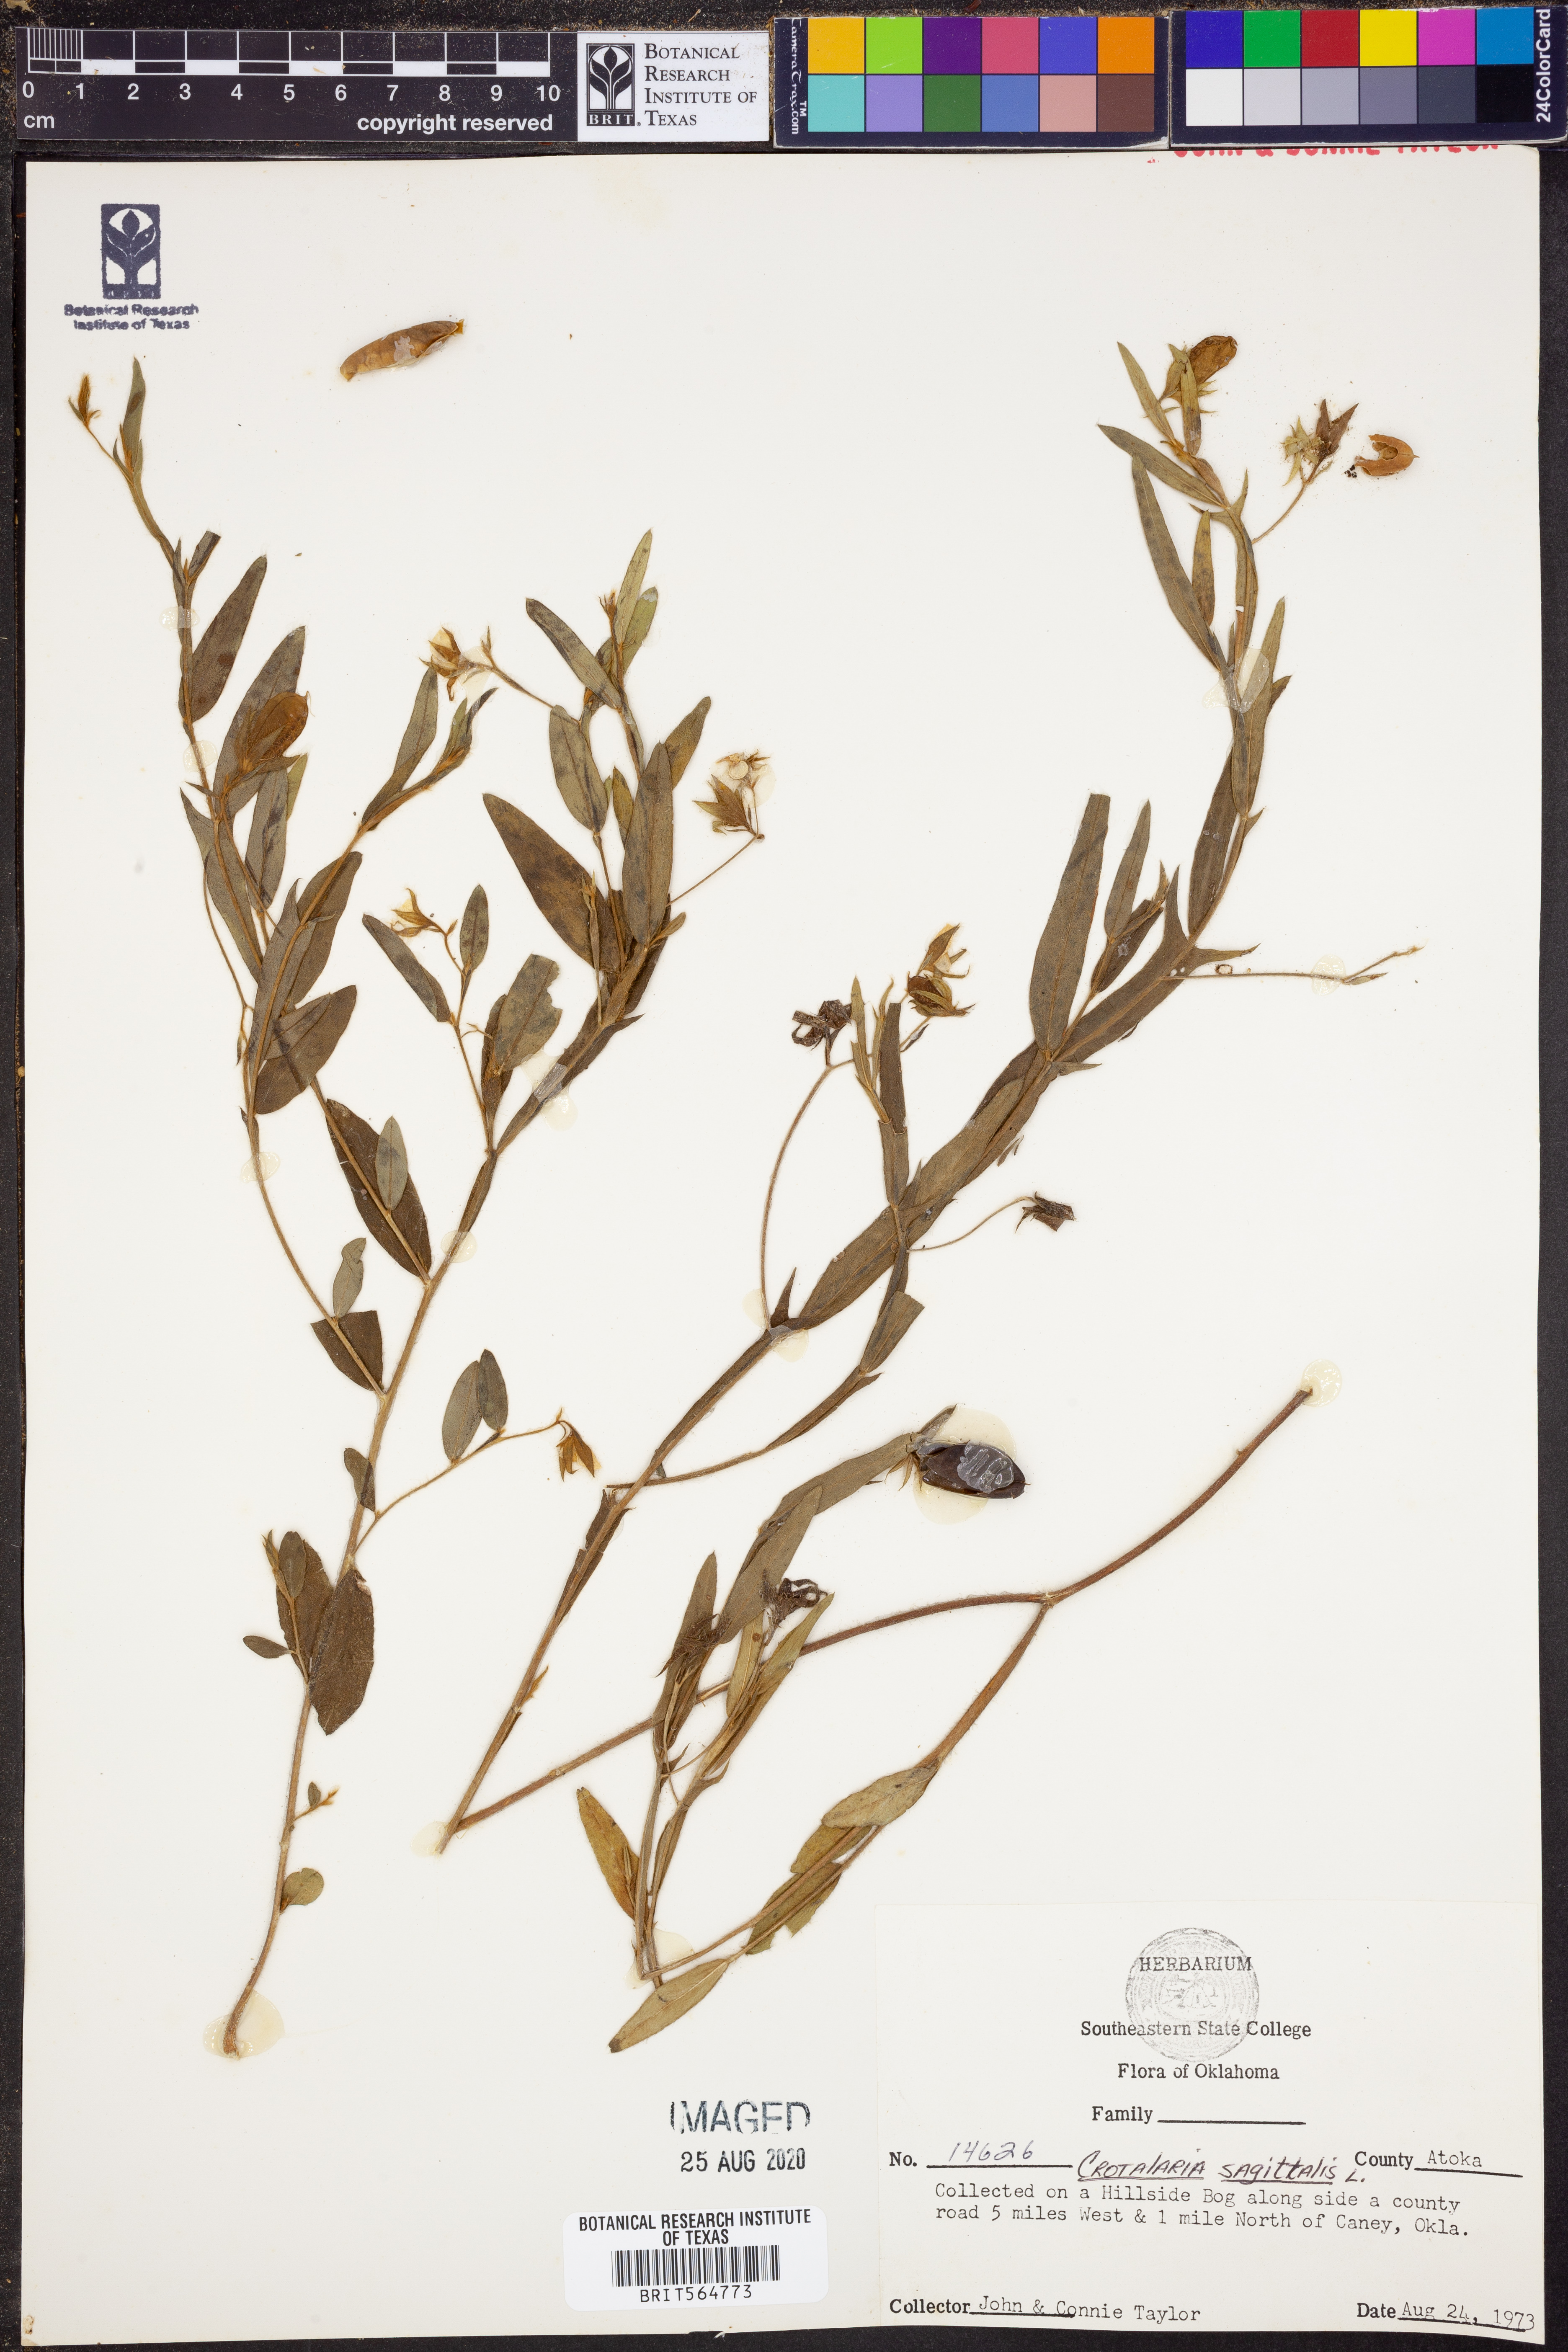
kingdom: Plantae
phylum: Tracheophyta
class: Magnoliopsida
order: Fabales
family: Fabaceae
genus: Crotalaria
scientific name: Crotalaria sagittalis
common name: Arrowhead rattlebox
